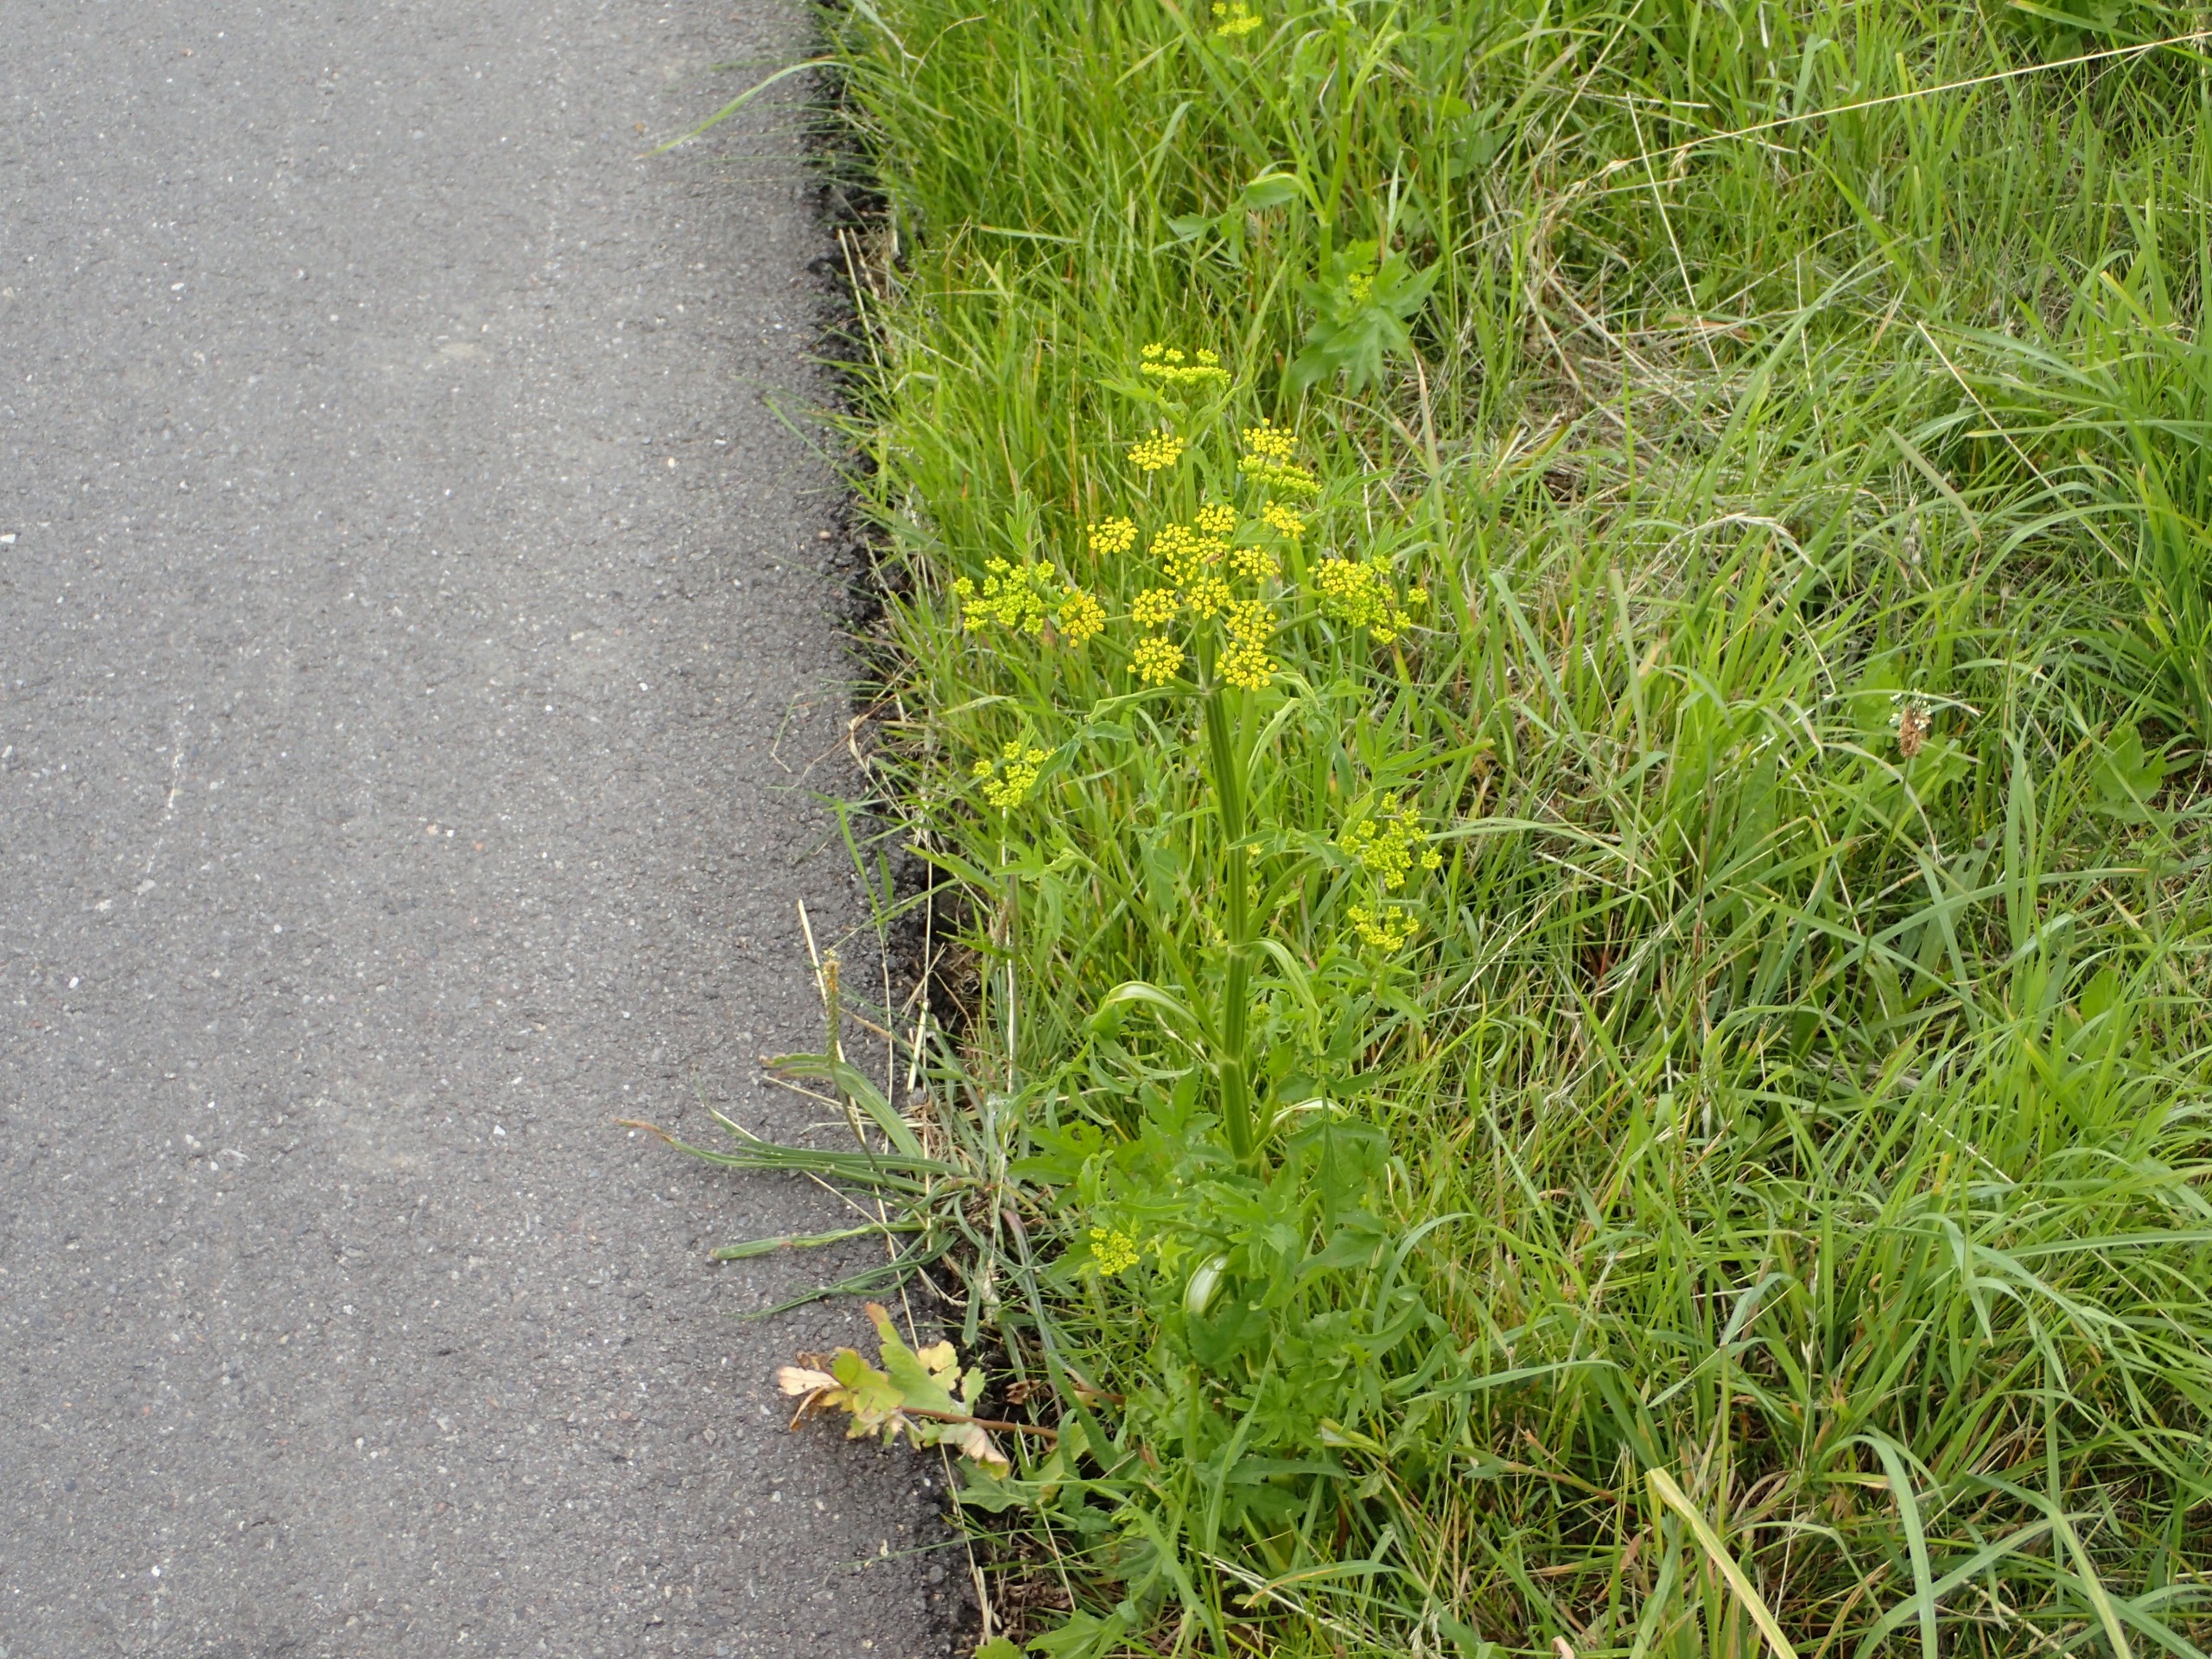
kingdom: Plantae
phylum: Tracheophyta
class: Magnoliopsida
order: Apiales
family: Apiaceae
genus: Pastinaca
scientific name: Pastinaca sativa
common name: Pastinak
